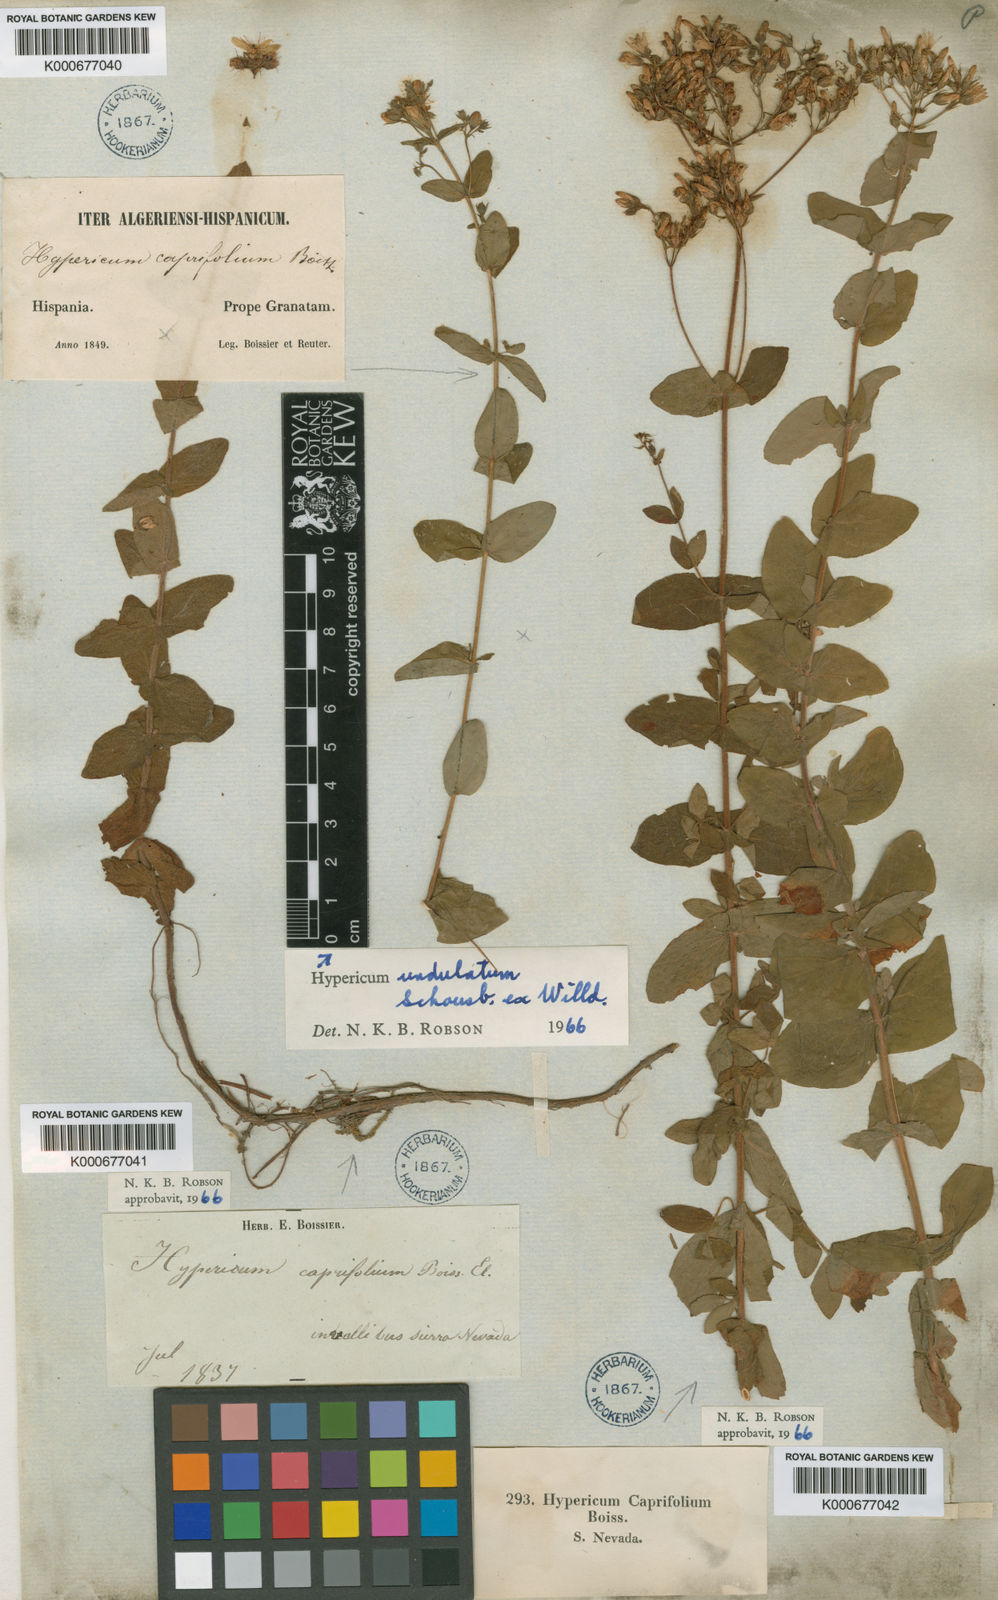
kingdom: Plantae
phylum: Tracheophyta
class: Magnoliopsida
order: Malpighiales
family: Hypericaceae
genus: Hypericum
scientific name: Hypericum caprifolium
